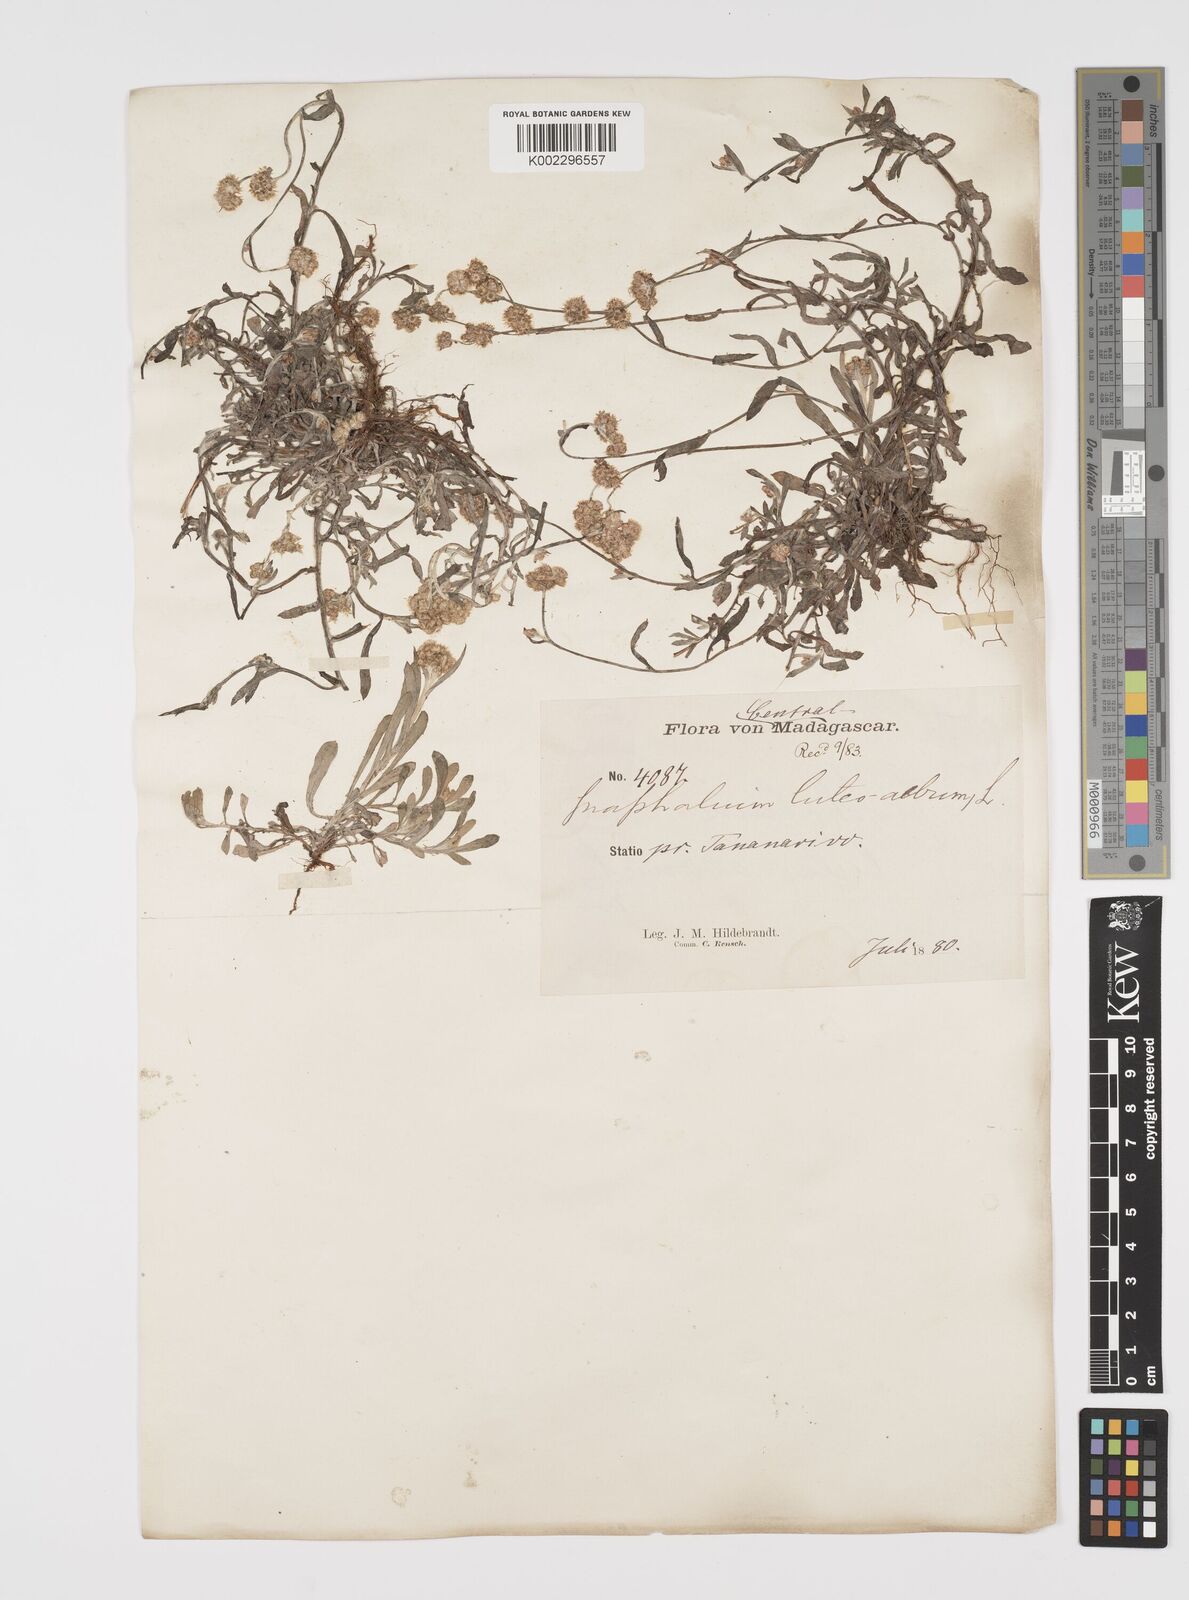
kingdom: Plantae
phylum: Tracheophyta
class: Magnoliopsida
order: Asterales
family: Asteraceae
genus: Helichrysum
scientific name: Helichrysum luteoalbum
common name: Daisy
